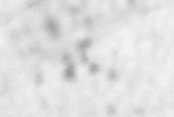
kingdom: Animalia
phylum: Chordata
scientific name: Chordata
